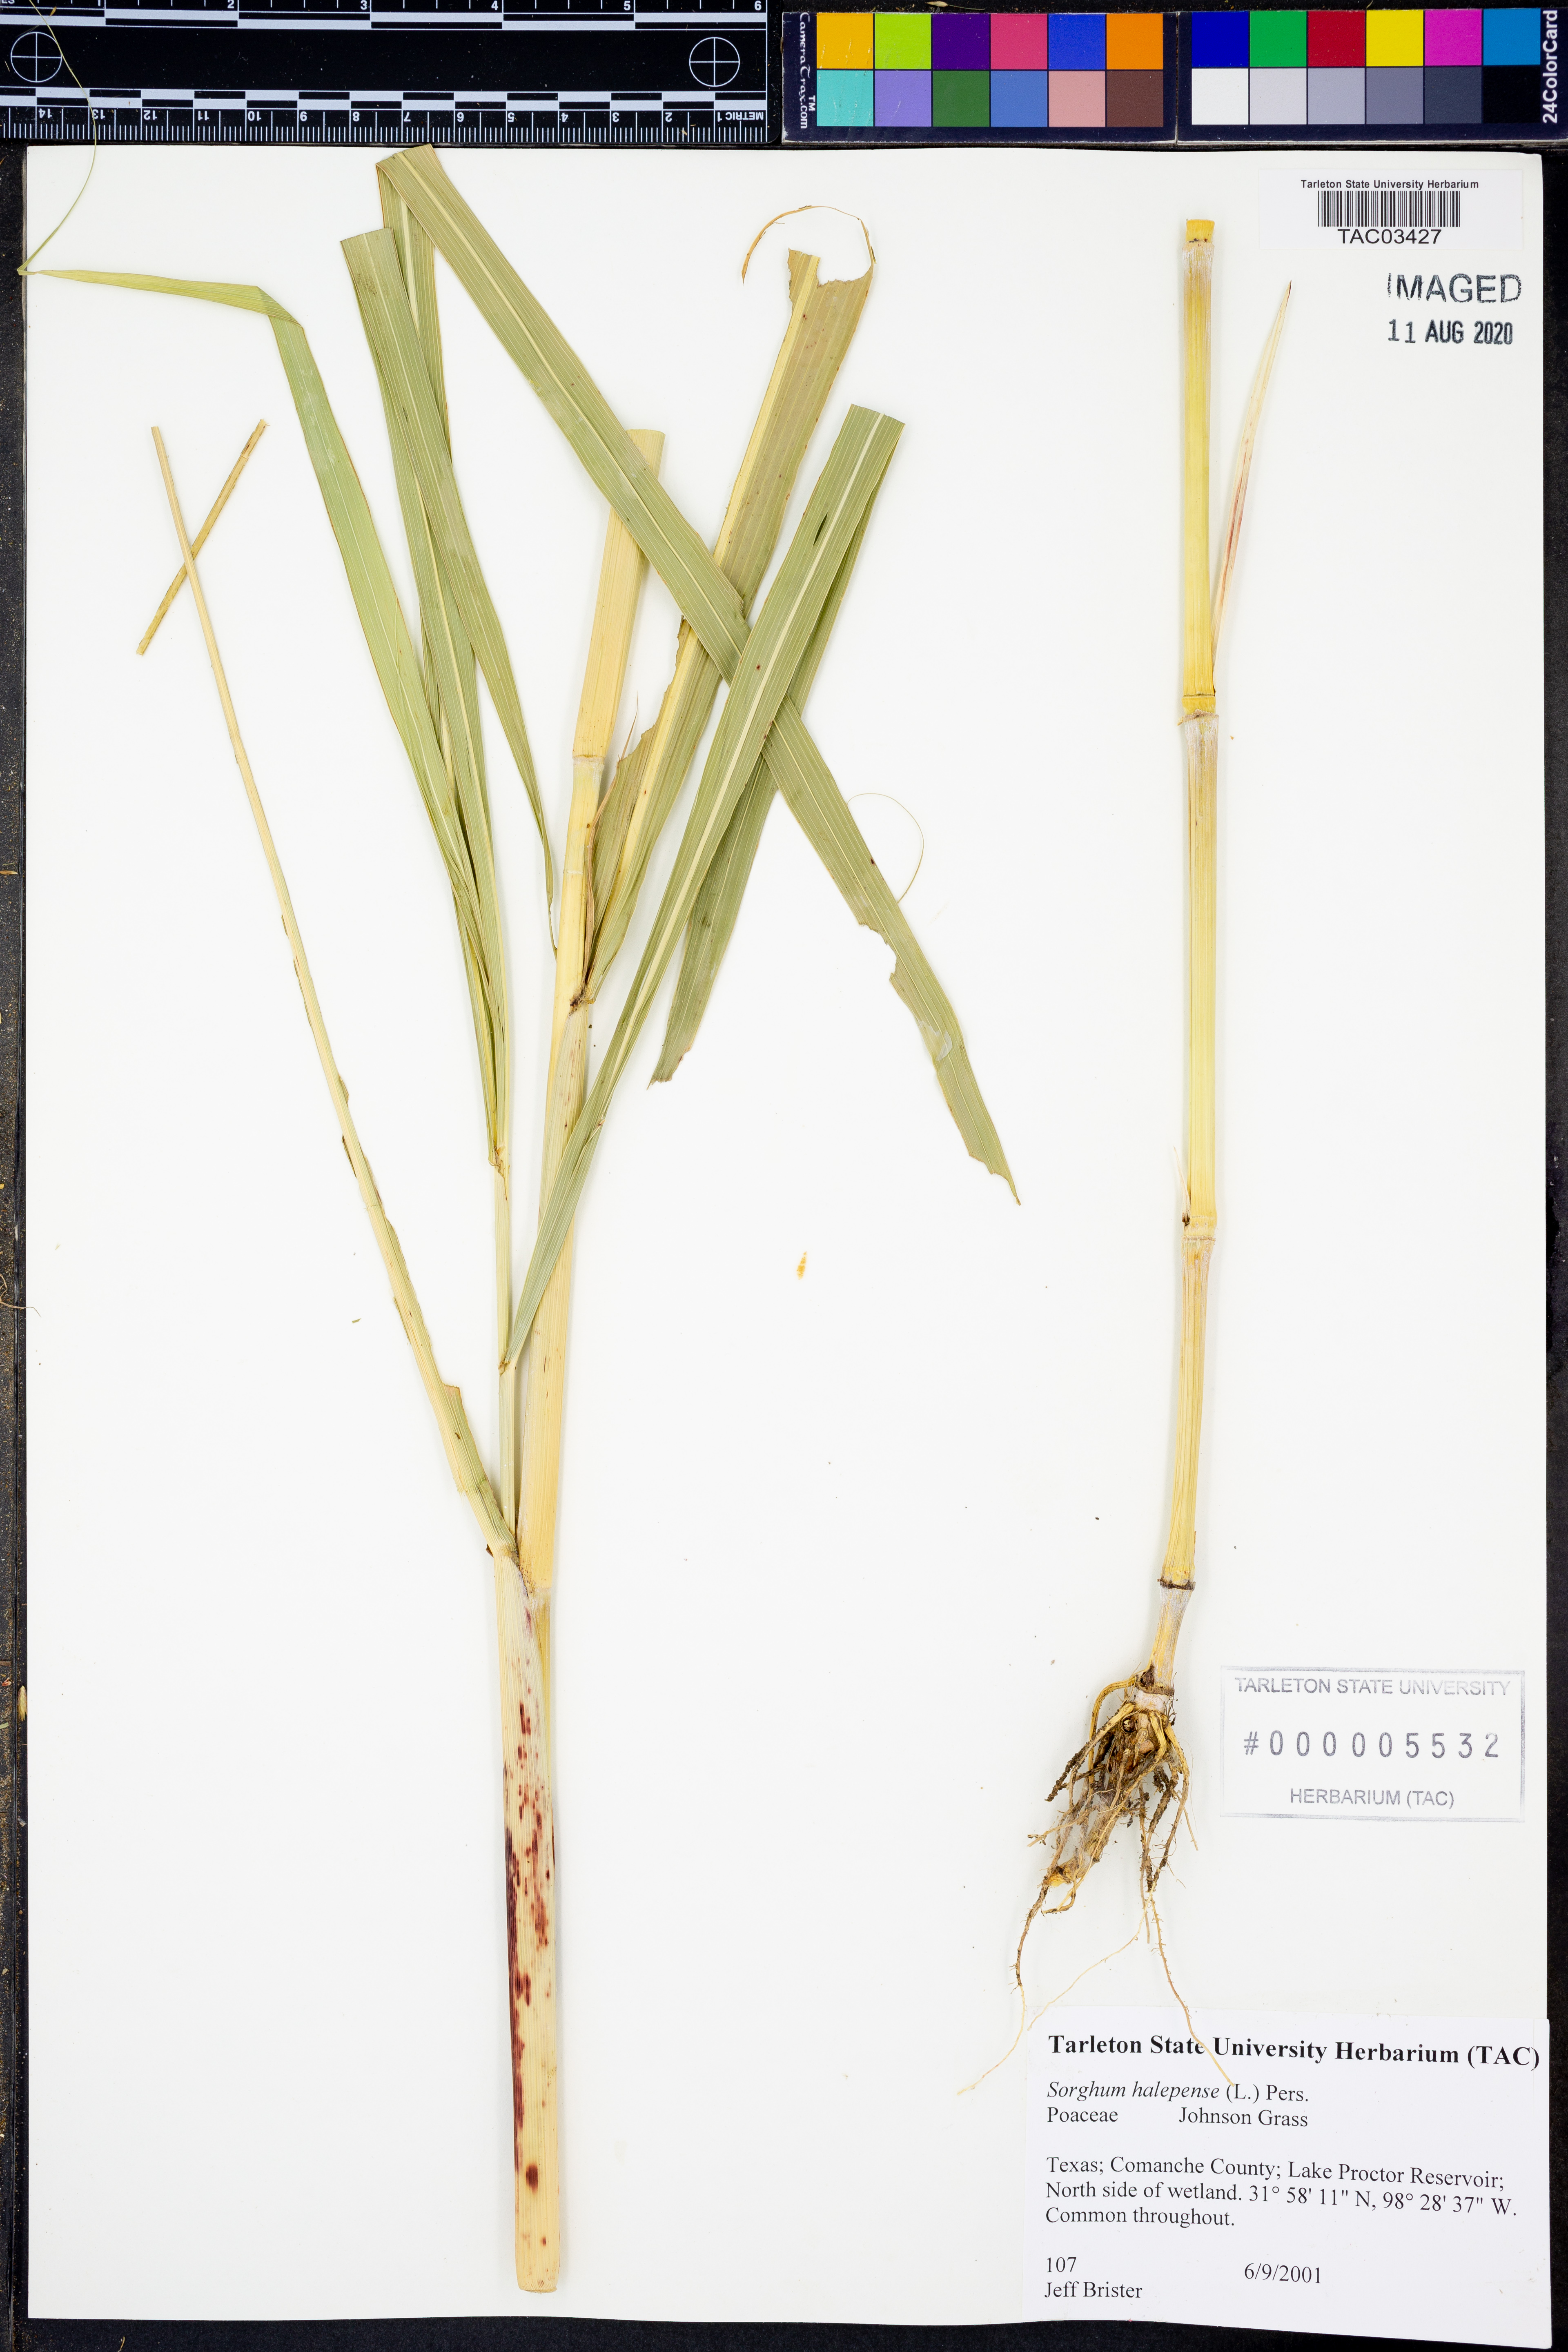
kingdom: Plantae
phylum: Tracheophyta
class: Liliopsida
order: Poales
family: Poaceae
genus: Sorghum
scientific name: Sorghum halepense
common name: Johnson-grass
